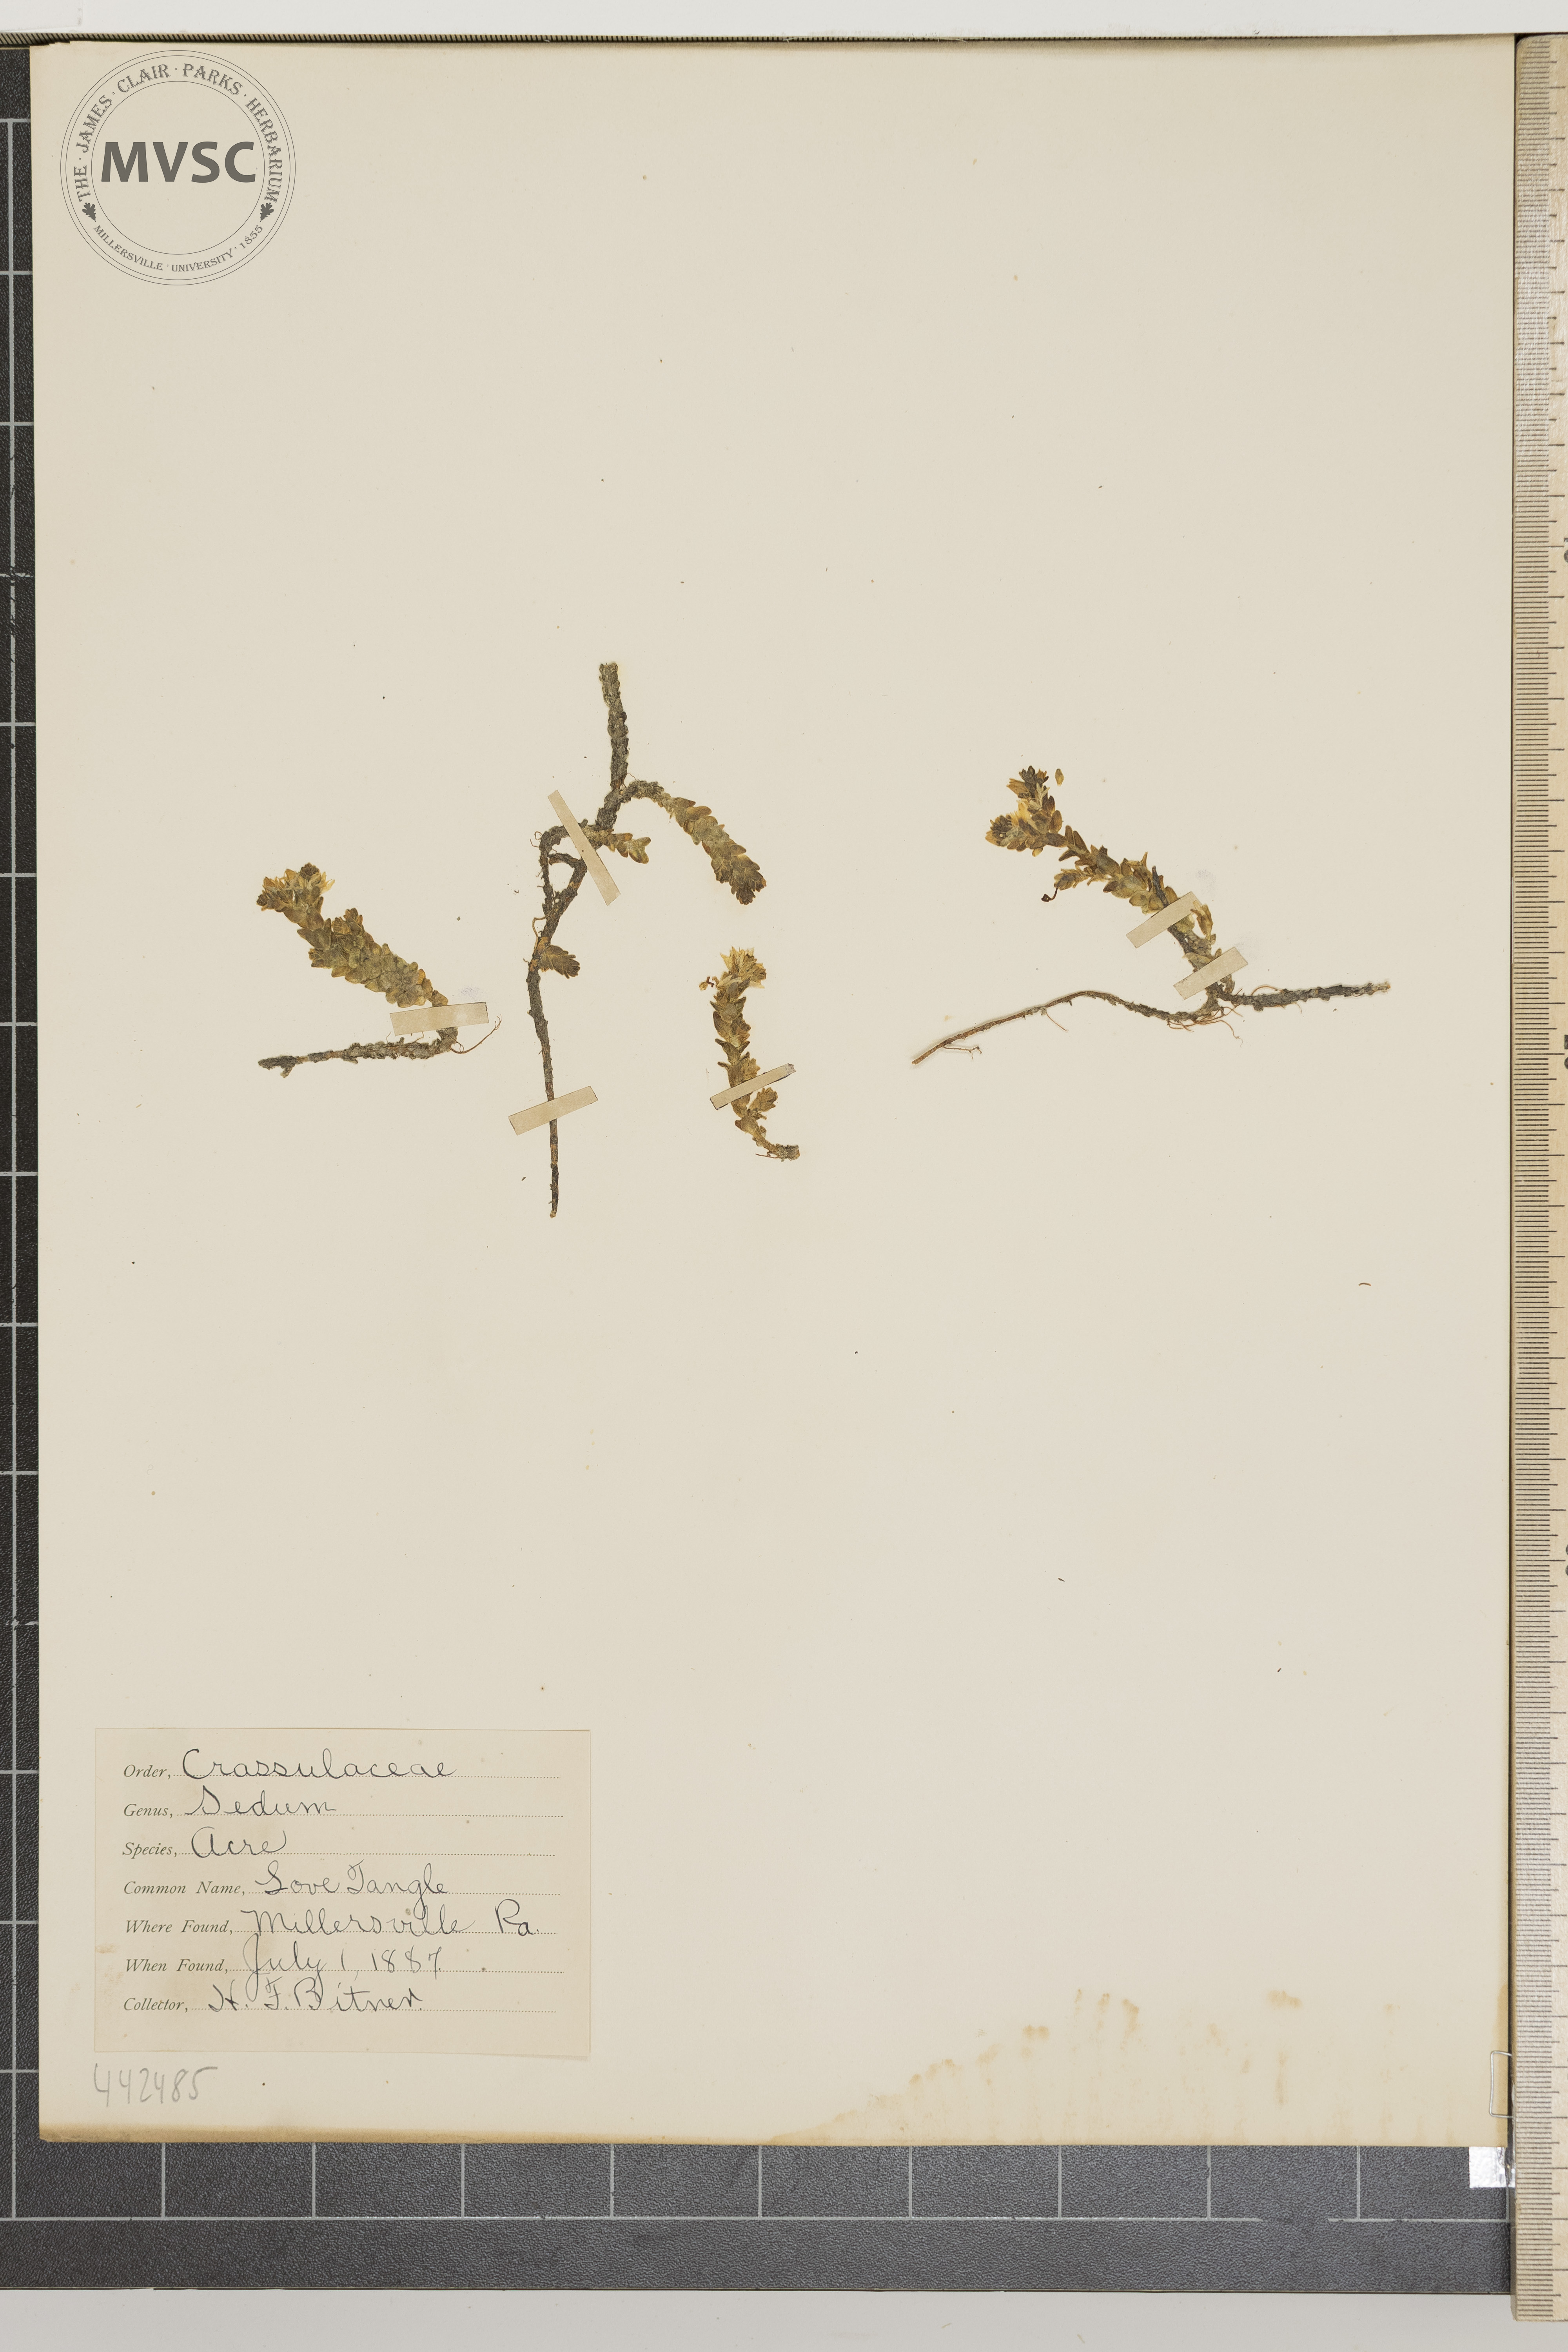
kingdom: Plantae
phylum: Tracheophyta
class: Magnoliopsida
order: Saxifragales
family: Crassulaceae
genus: Sedum
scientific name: Sedum acre
